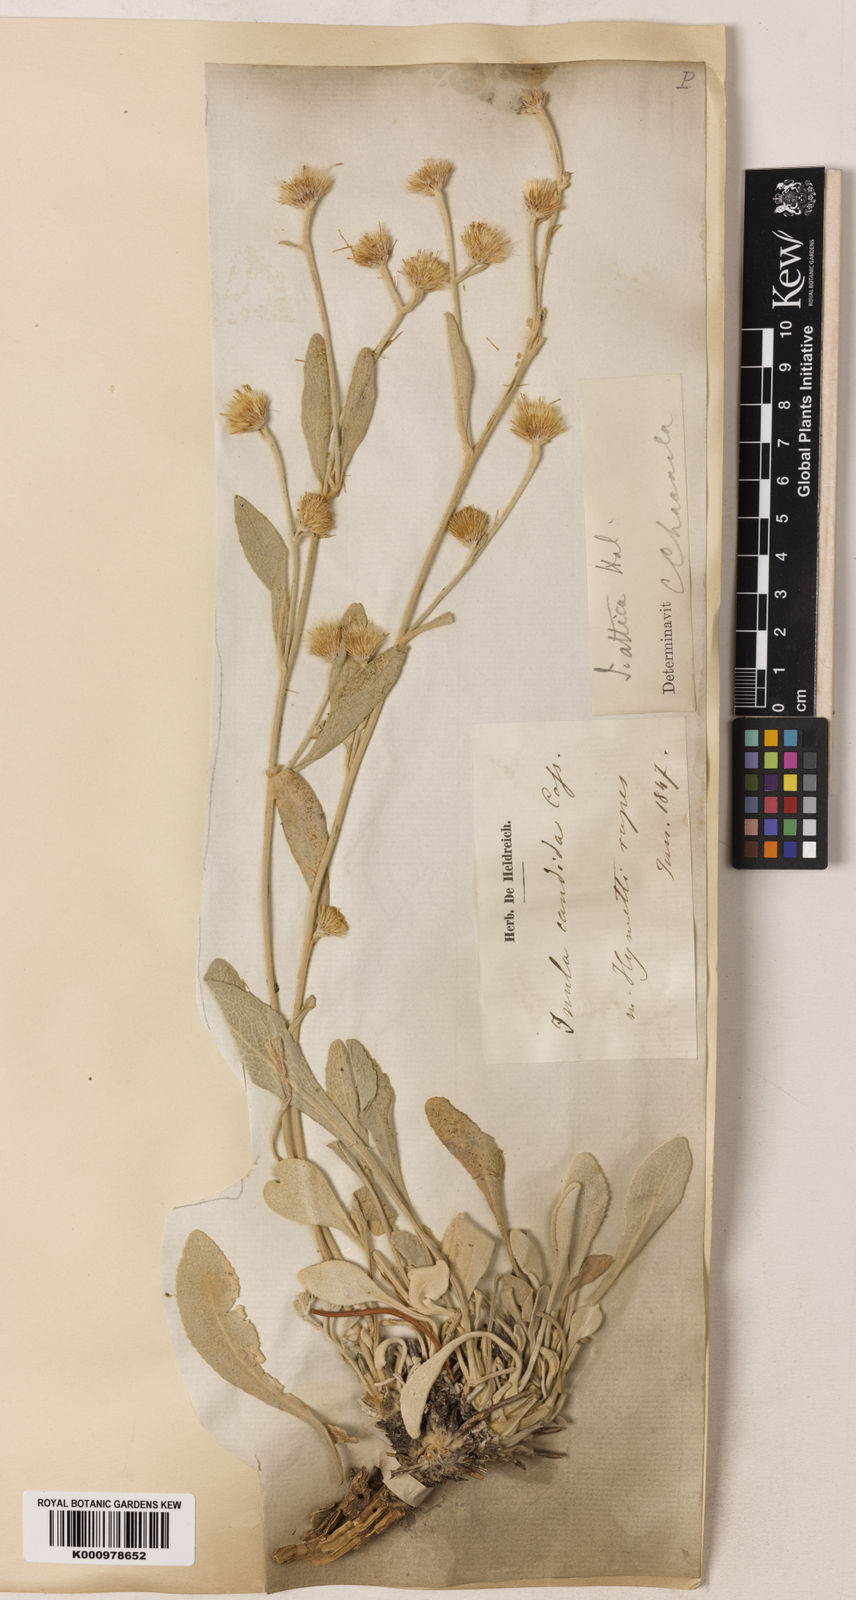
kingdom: Plantae
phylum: Tracheophyta
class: Magnoliopsida
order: Asterales
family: Asteraceae
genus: Inula
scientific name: Inula
